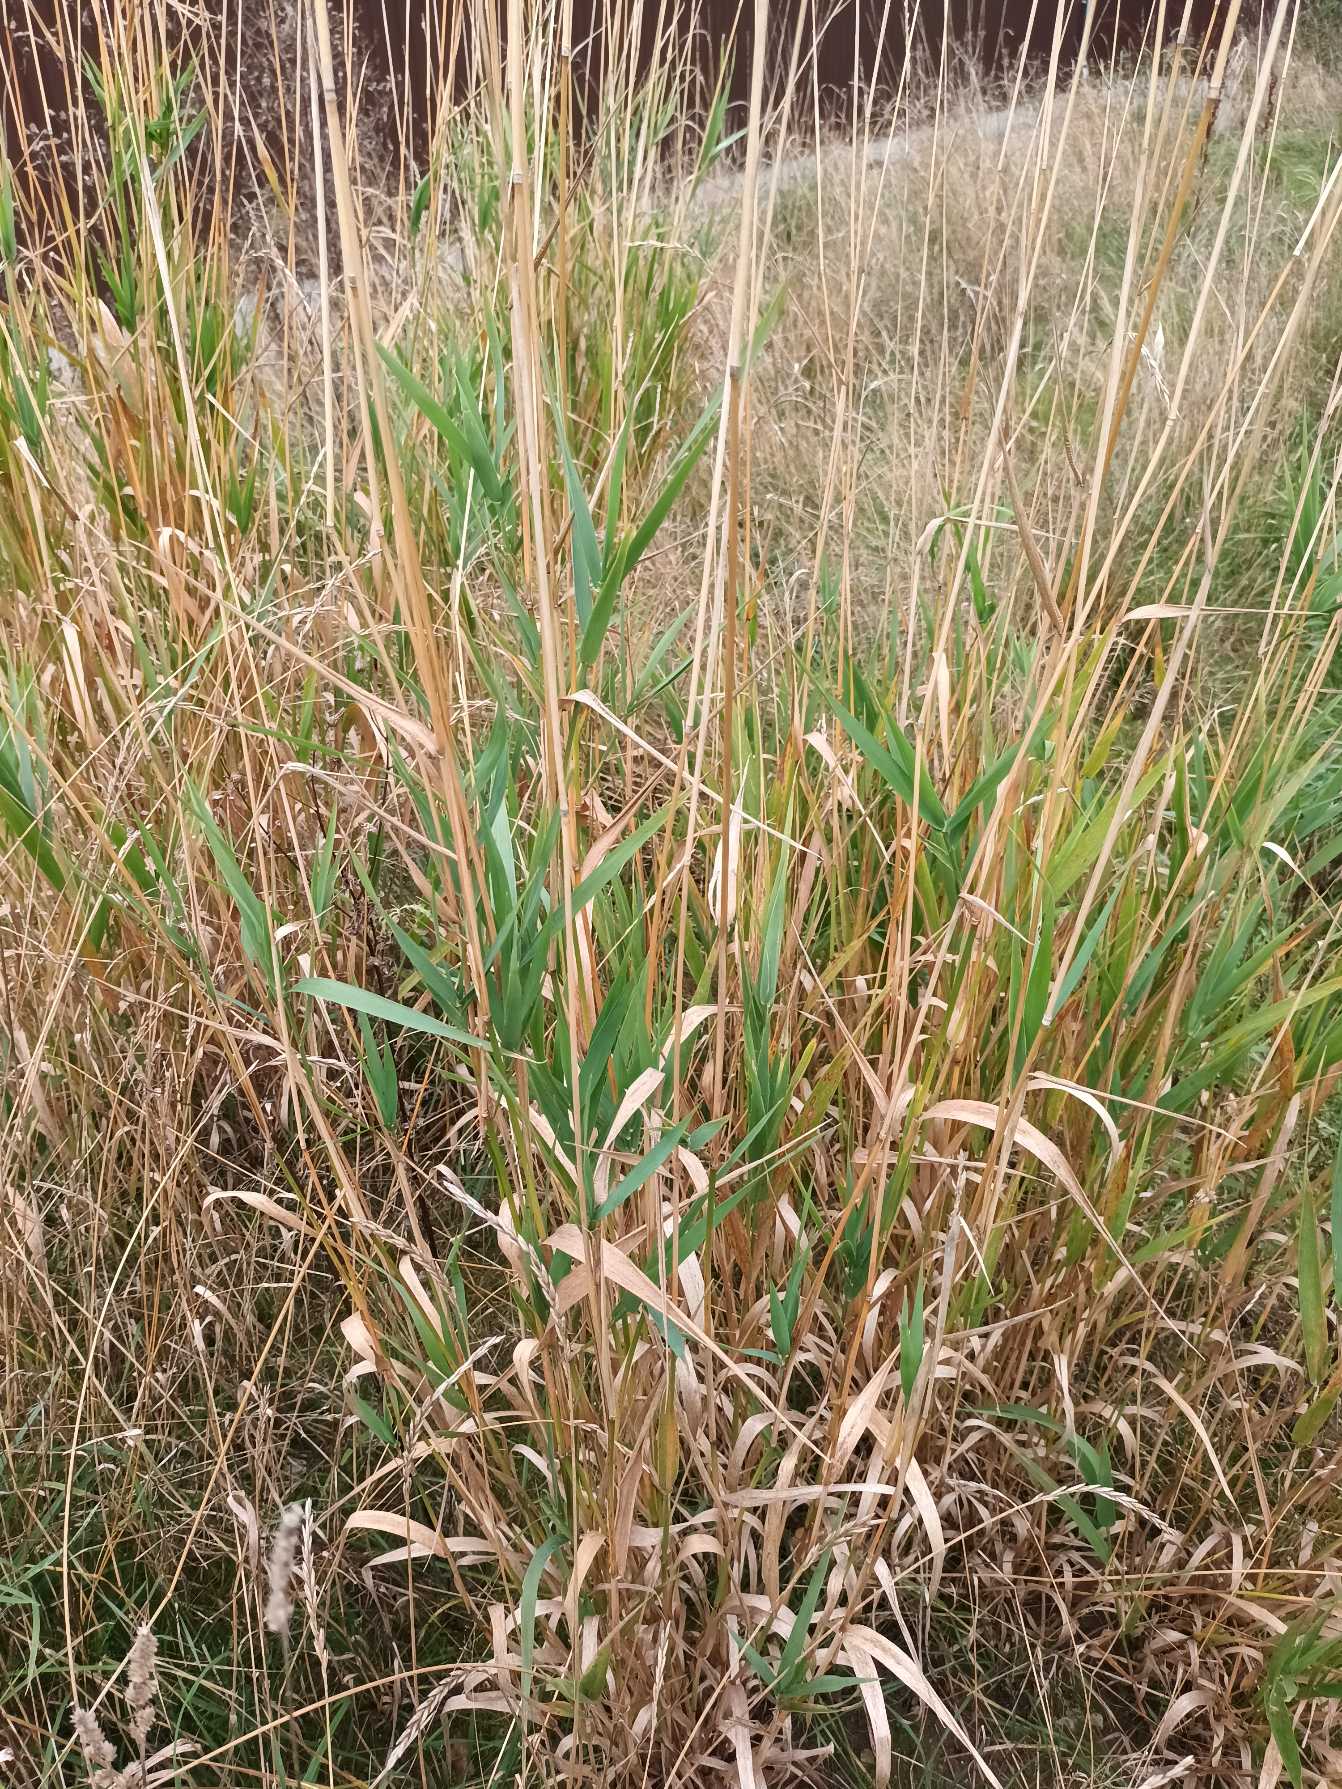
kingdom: Plantae
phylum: Tracheophyta
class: Liliopsida
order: Poales
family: Poaceae
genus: Phalaris
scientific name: Phalaris arundinacea
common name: Rørgræs
